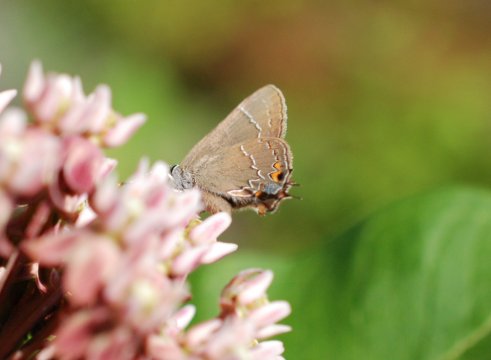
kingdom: Animalia
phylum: Arthropoda
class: Insecta
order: Lepidoptera
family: Lycaenidae
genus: Fixsenia
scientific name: Fixsenia favonius
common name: Oak Hairstreak
